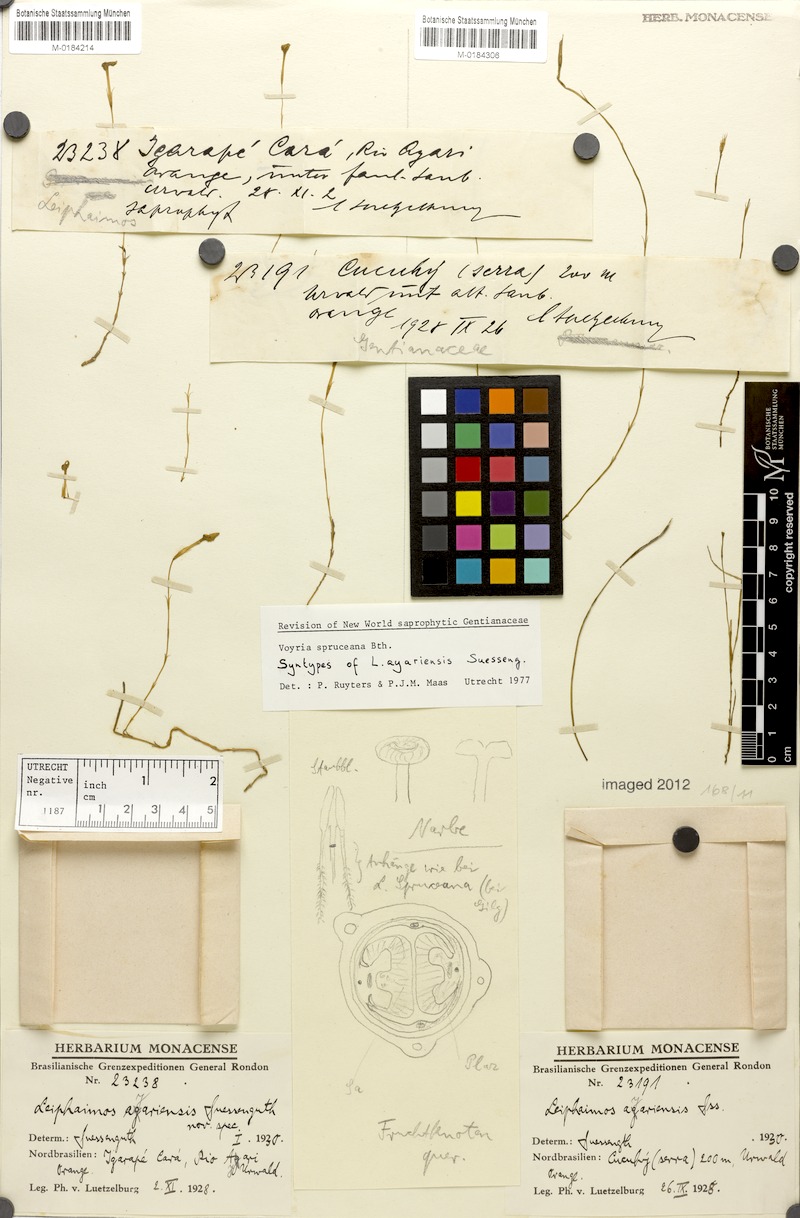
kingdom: Plantae
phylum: Tracheophyta
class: Magnoliopsida
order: Gentianales
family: Gentianaceae
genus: Voyria
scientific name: Voyria spruceana
